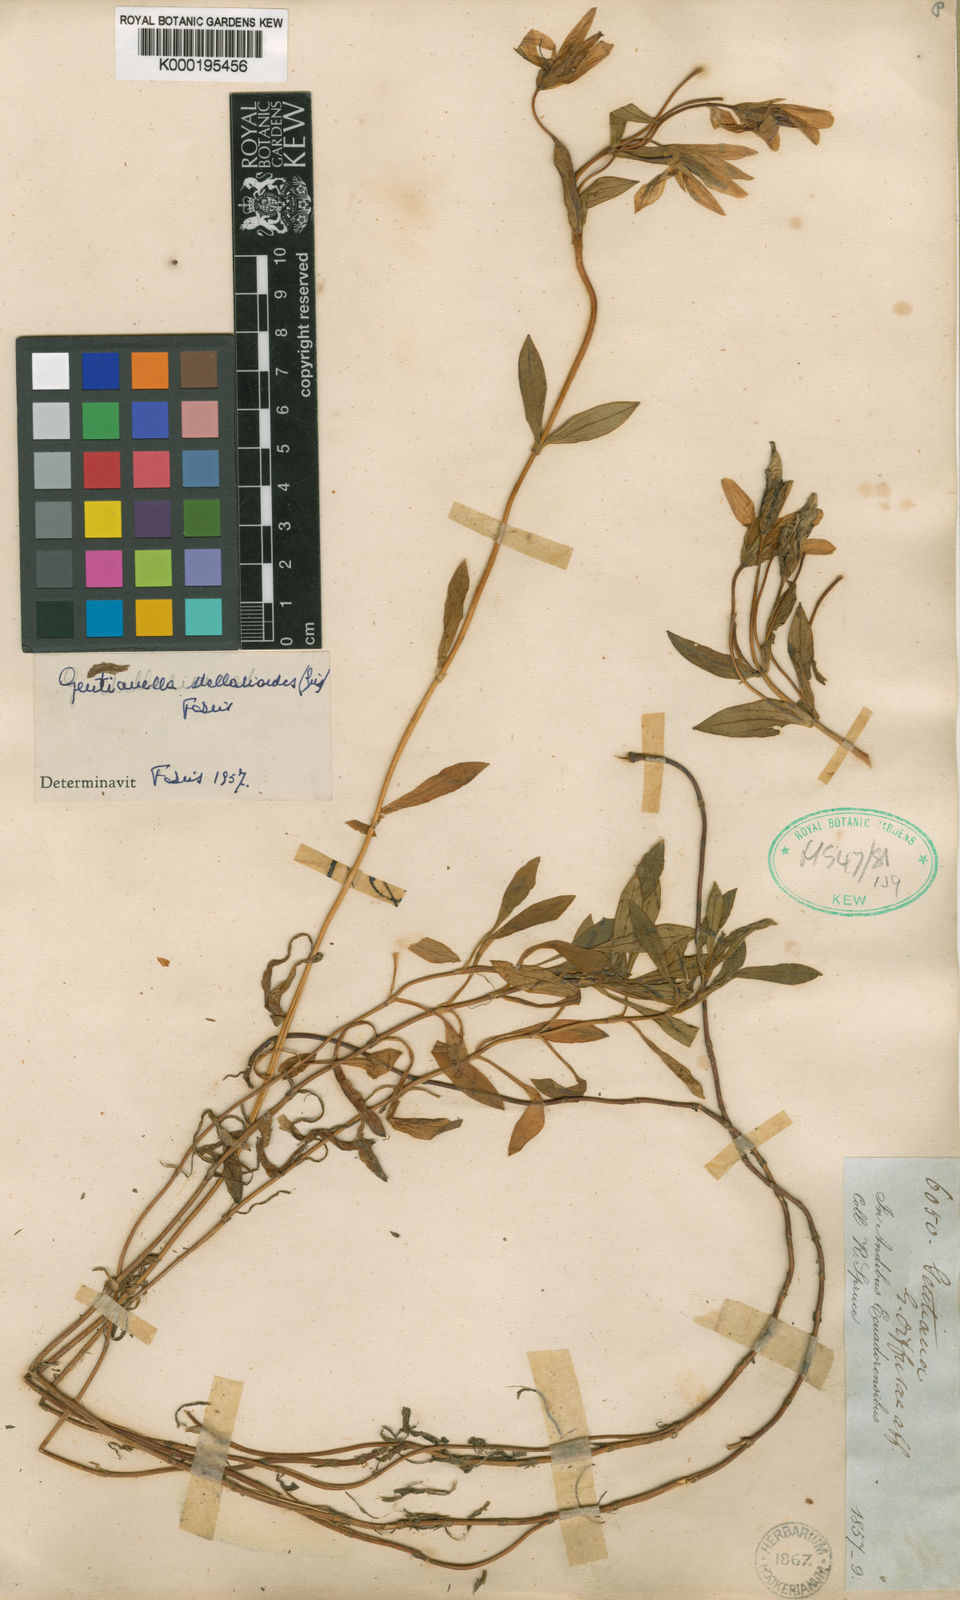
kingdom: Plantae
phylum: Tracheophyta
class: Magnoliopsida
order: Gentianales
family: Gentianaceae
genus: Gentianella
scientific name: Gentianella foliosa
